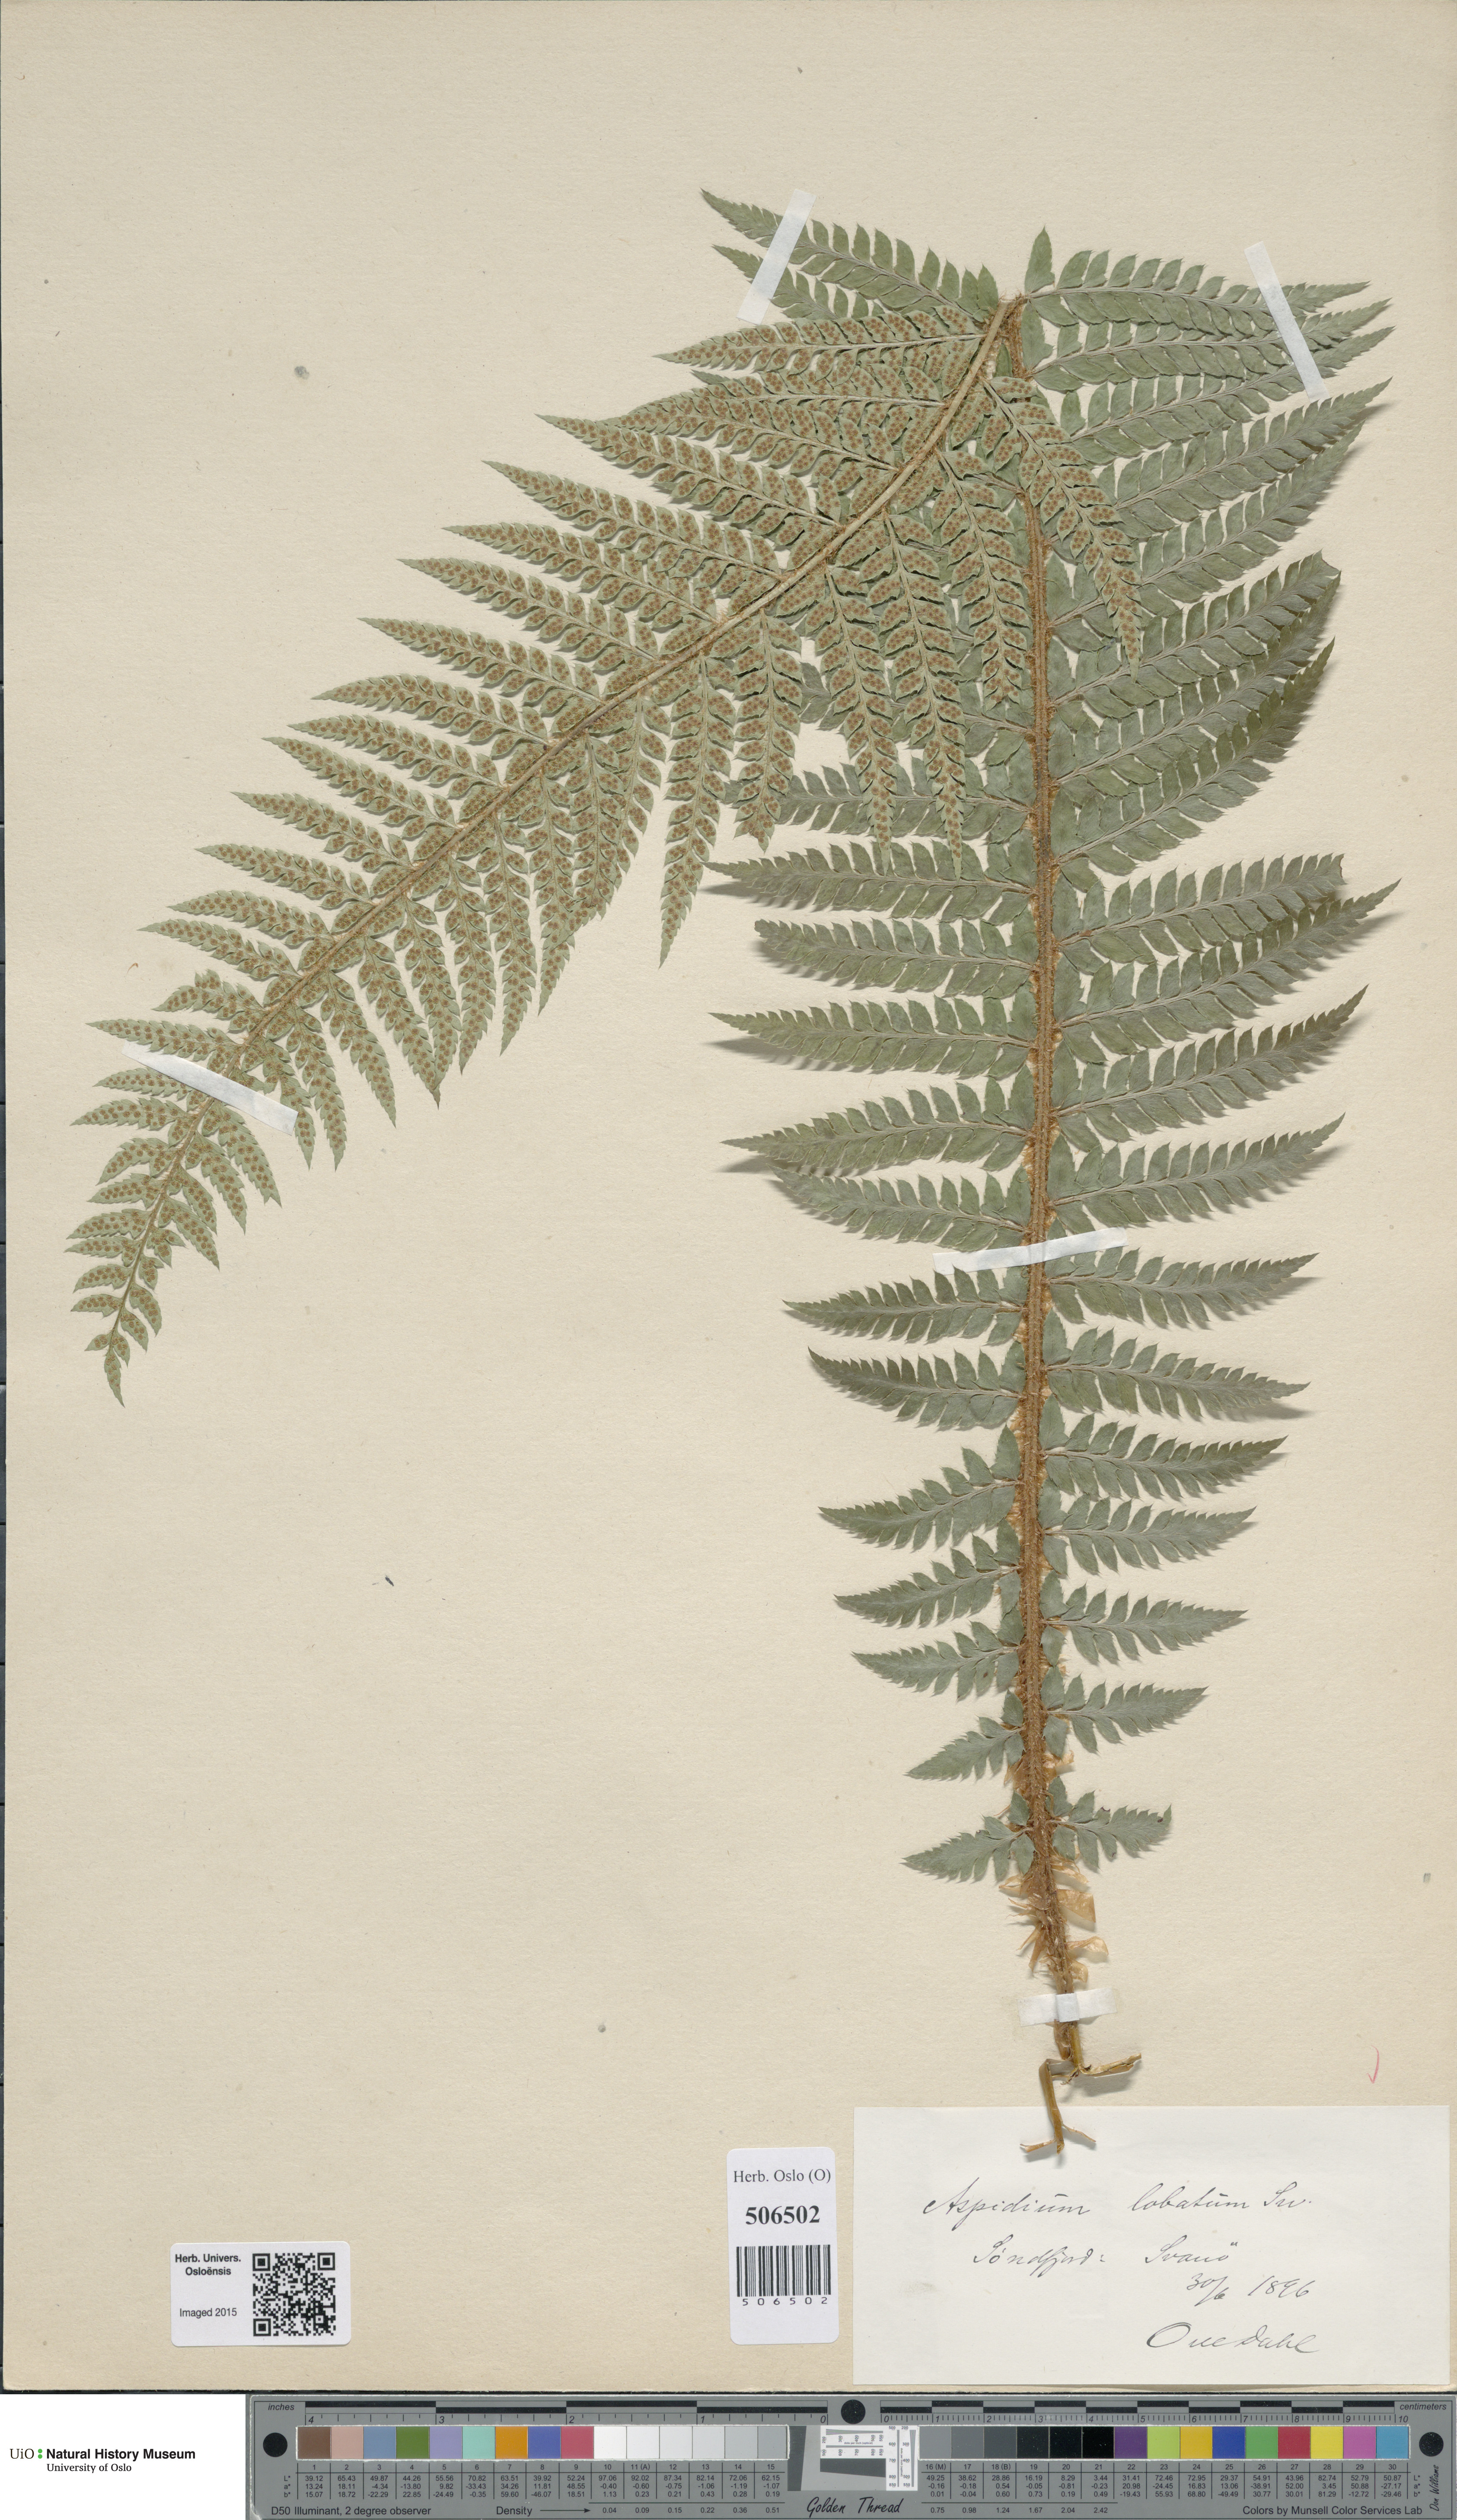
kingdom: Plantae
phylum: Tracheophyta
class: Polypodiopsida
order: Polypodiales
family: Dryopteridaceae
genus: Polystichum
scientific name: Polystichum aculeatum
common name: Hard shield-fern
